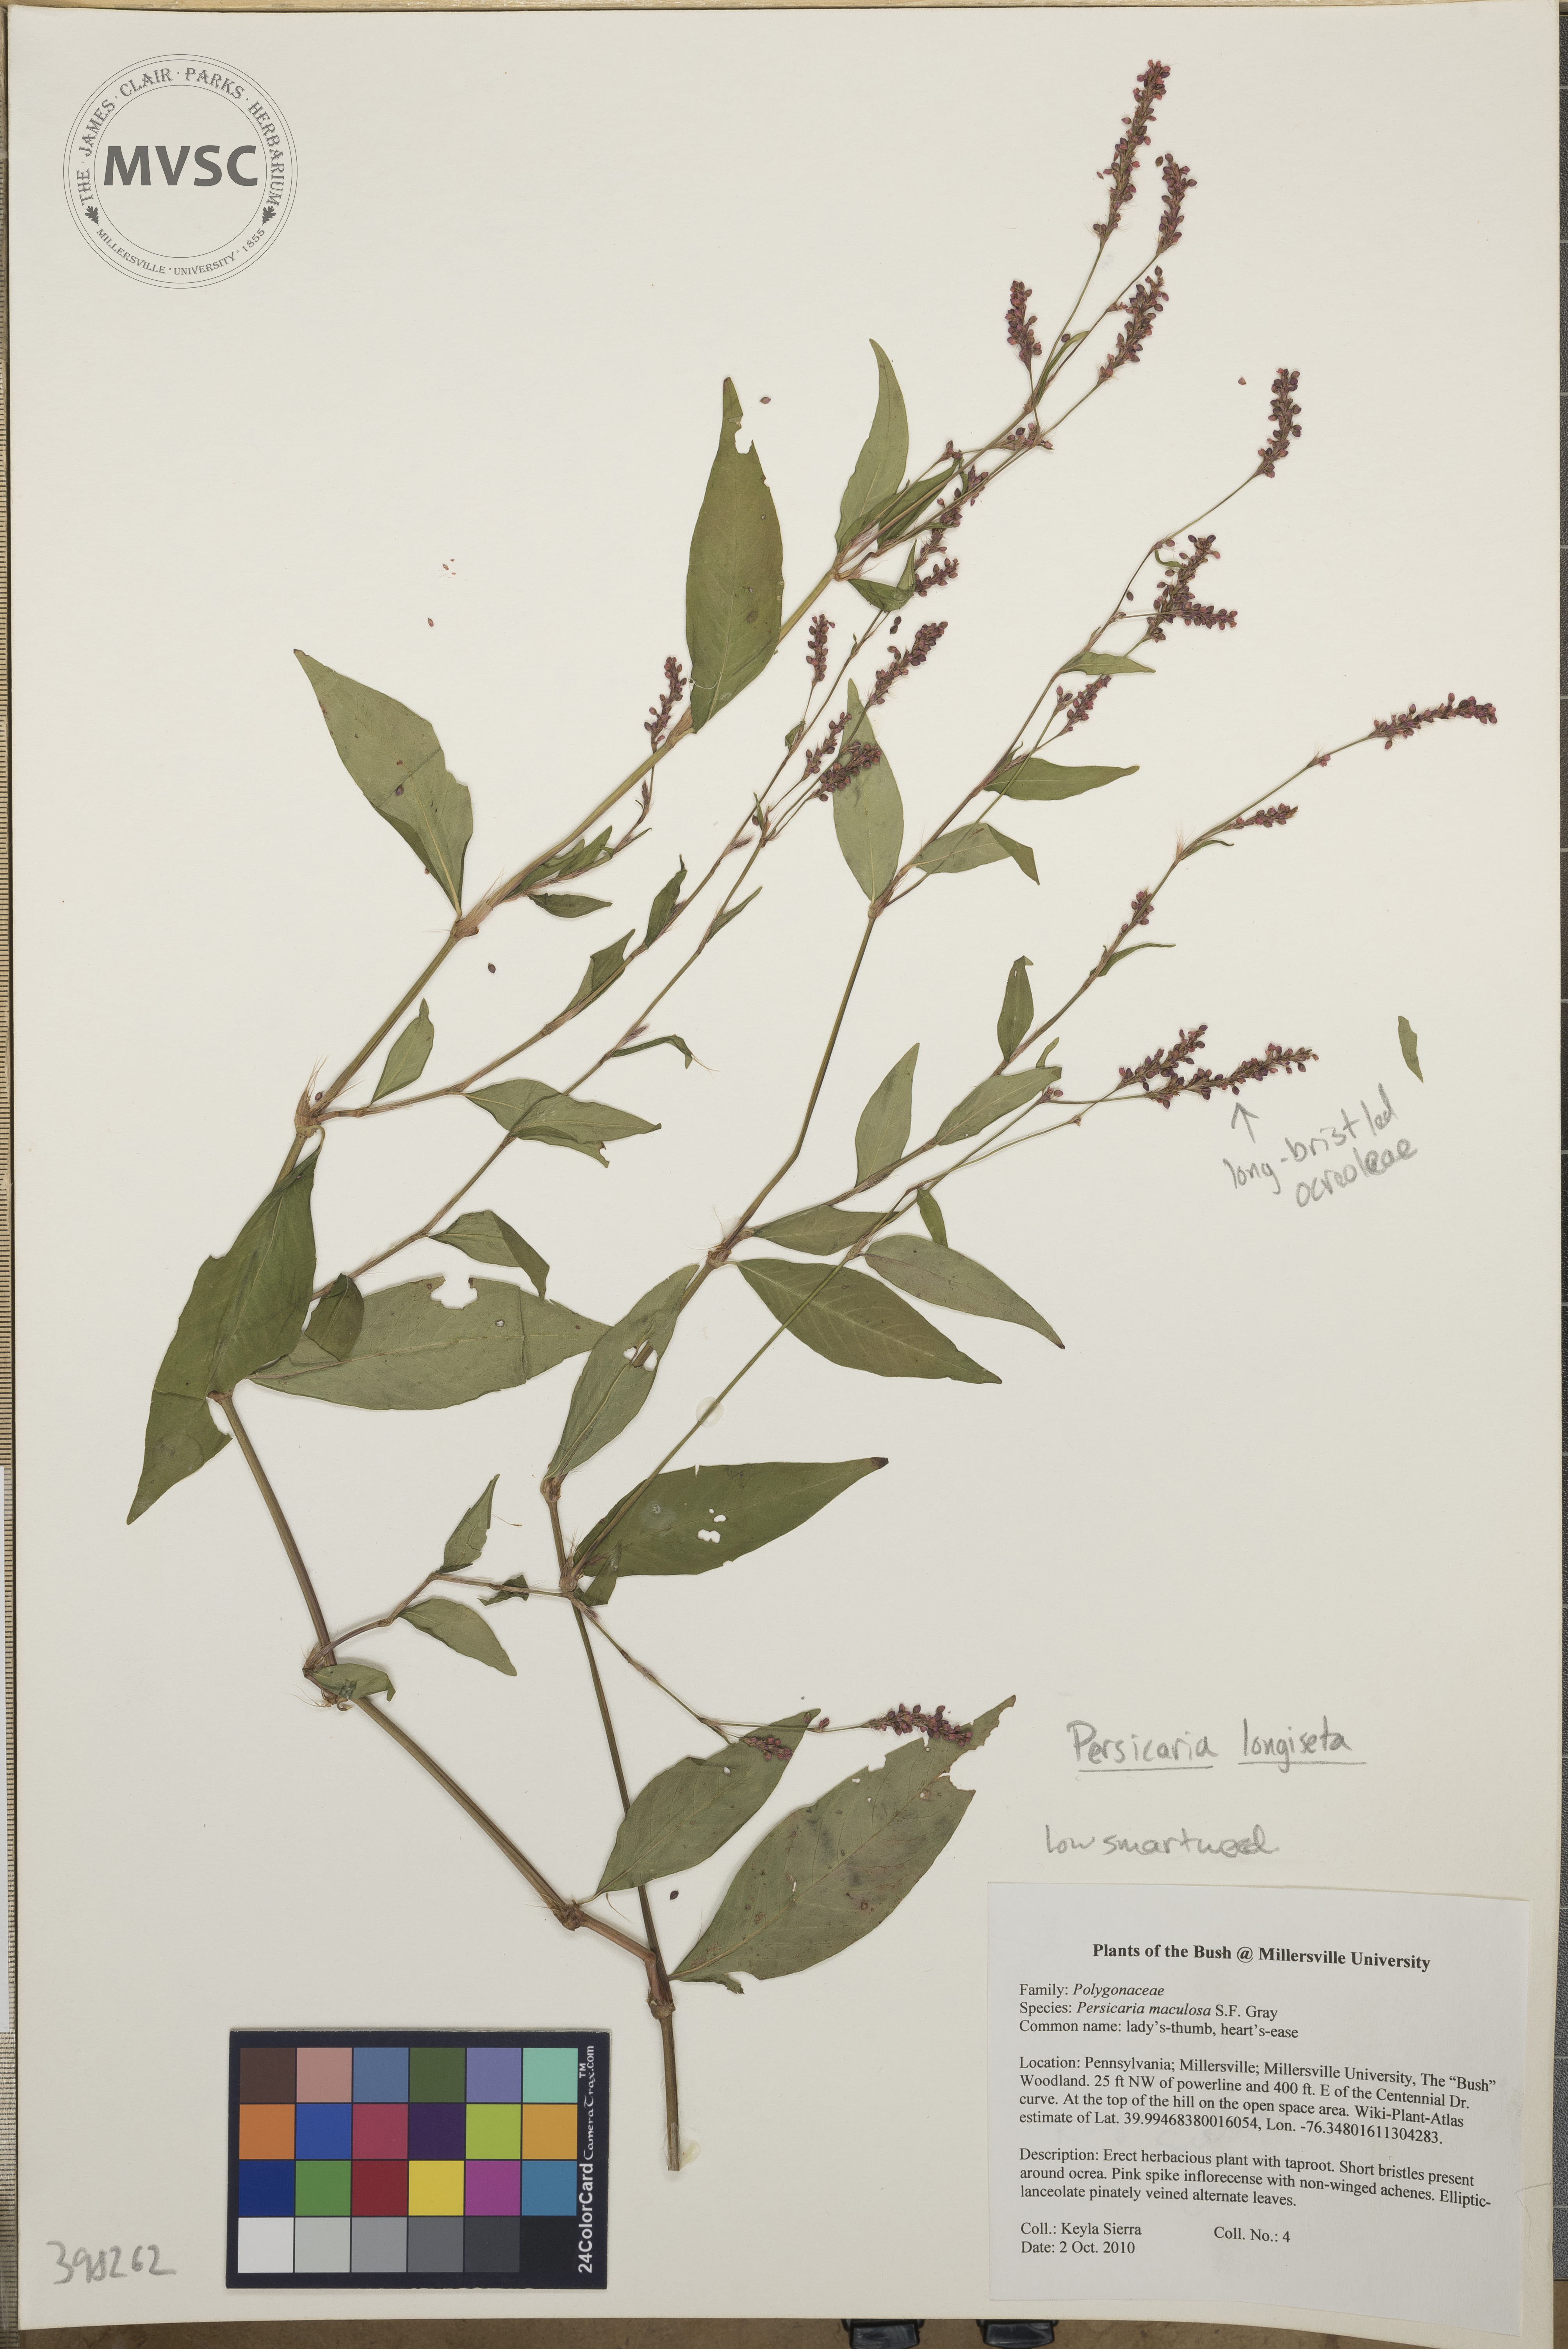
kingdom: Plantae
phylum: Tracheophyta
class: Magnoliopsida
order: Caryophyllales
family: Polygonaceae
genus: Persicaria
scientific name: Persicaria longiseta
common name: Low smartweed
